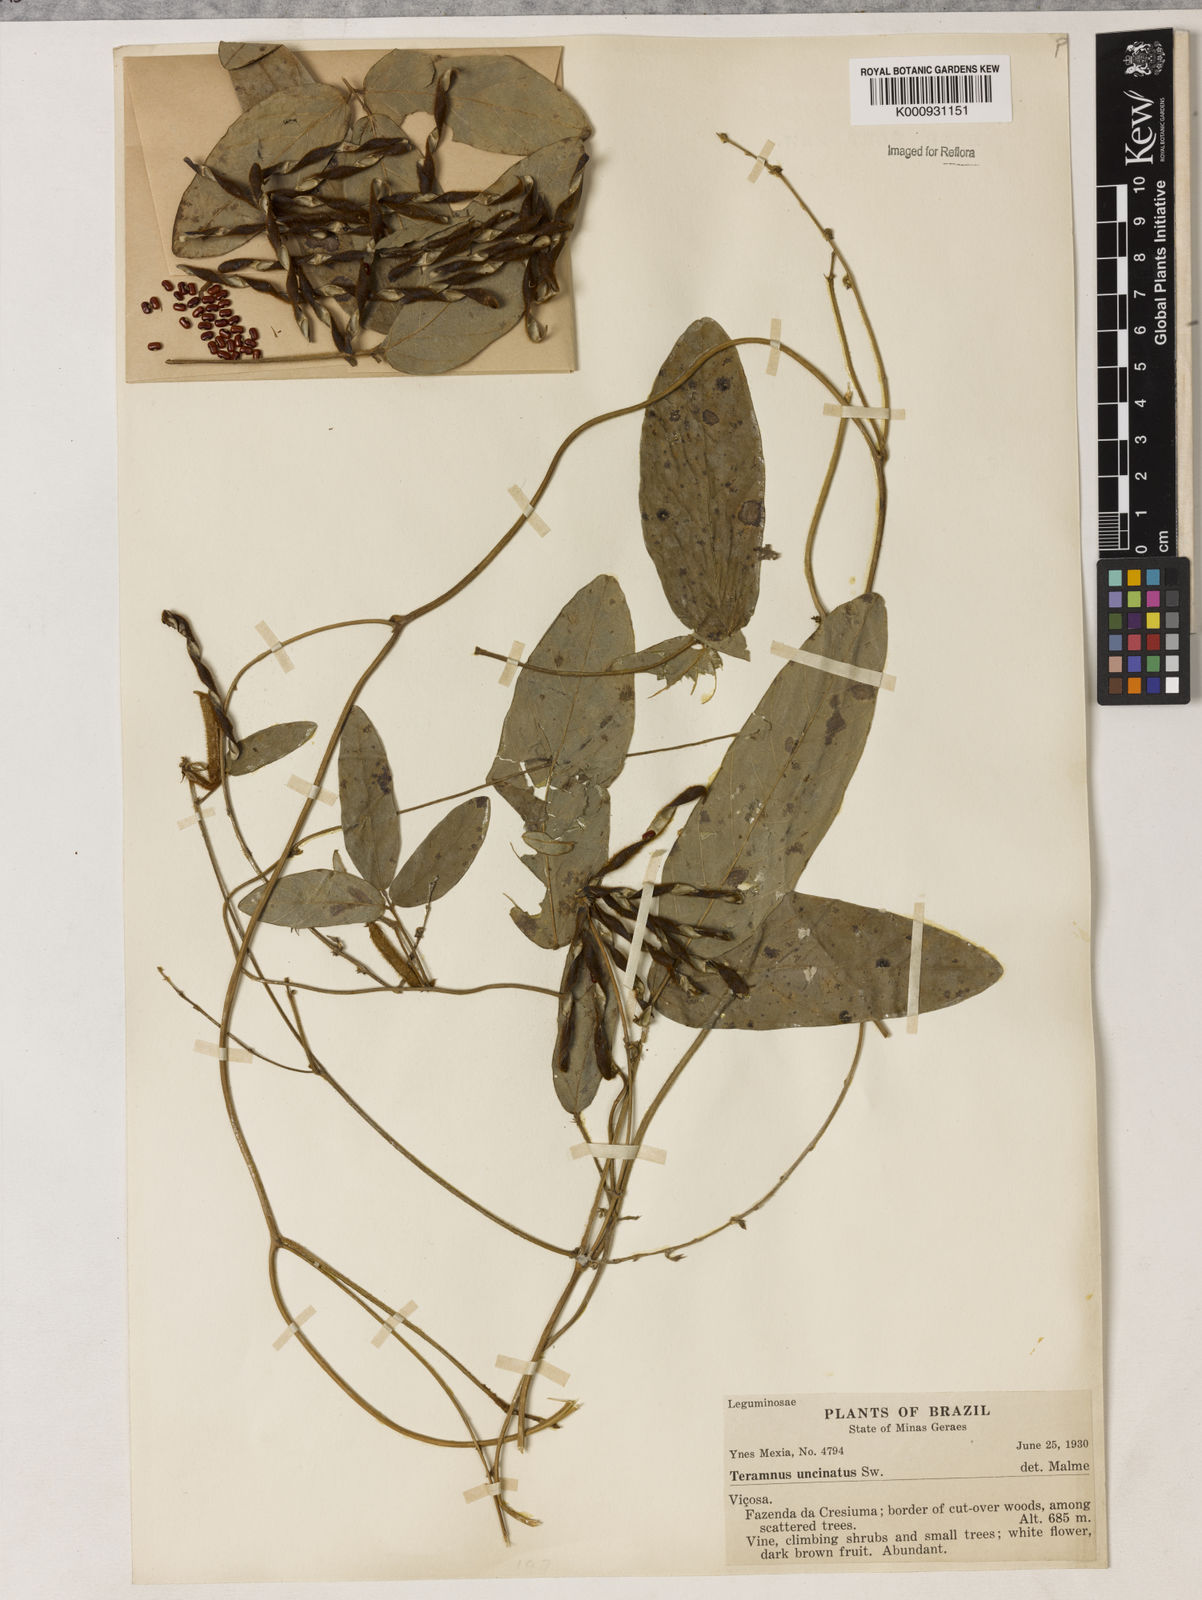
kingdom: Plantae
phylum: Tracheophyta
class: Magnoliopsida
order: Fabales
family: Fabaceae
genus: Teramnus
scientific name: Teramnus uncinatus
